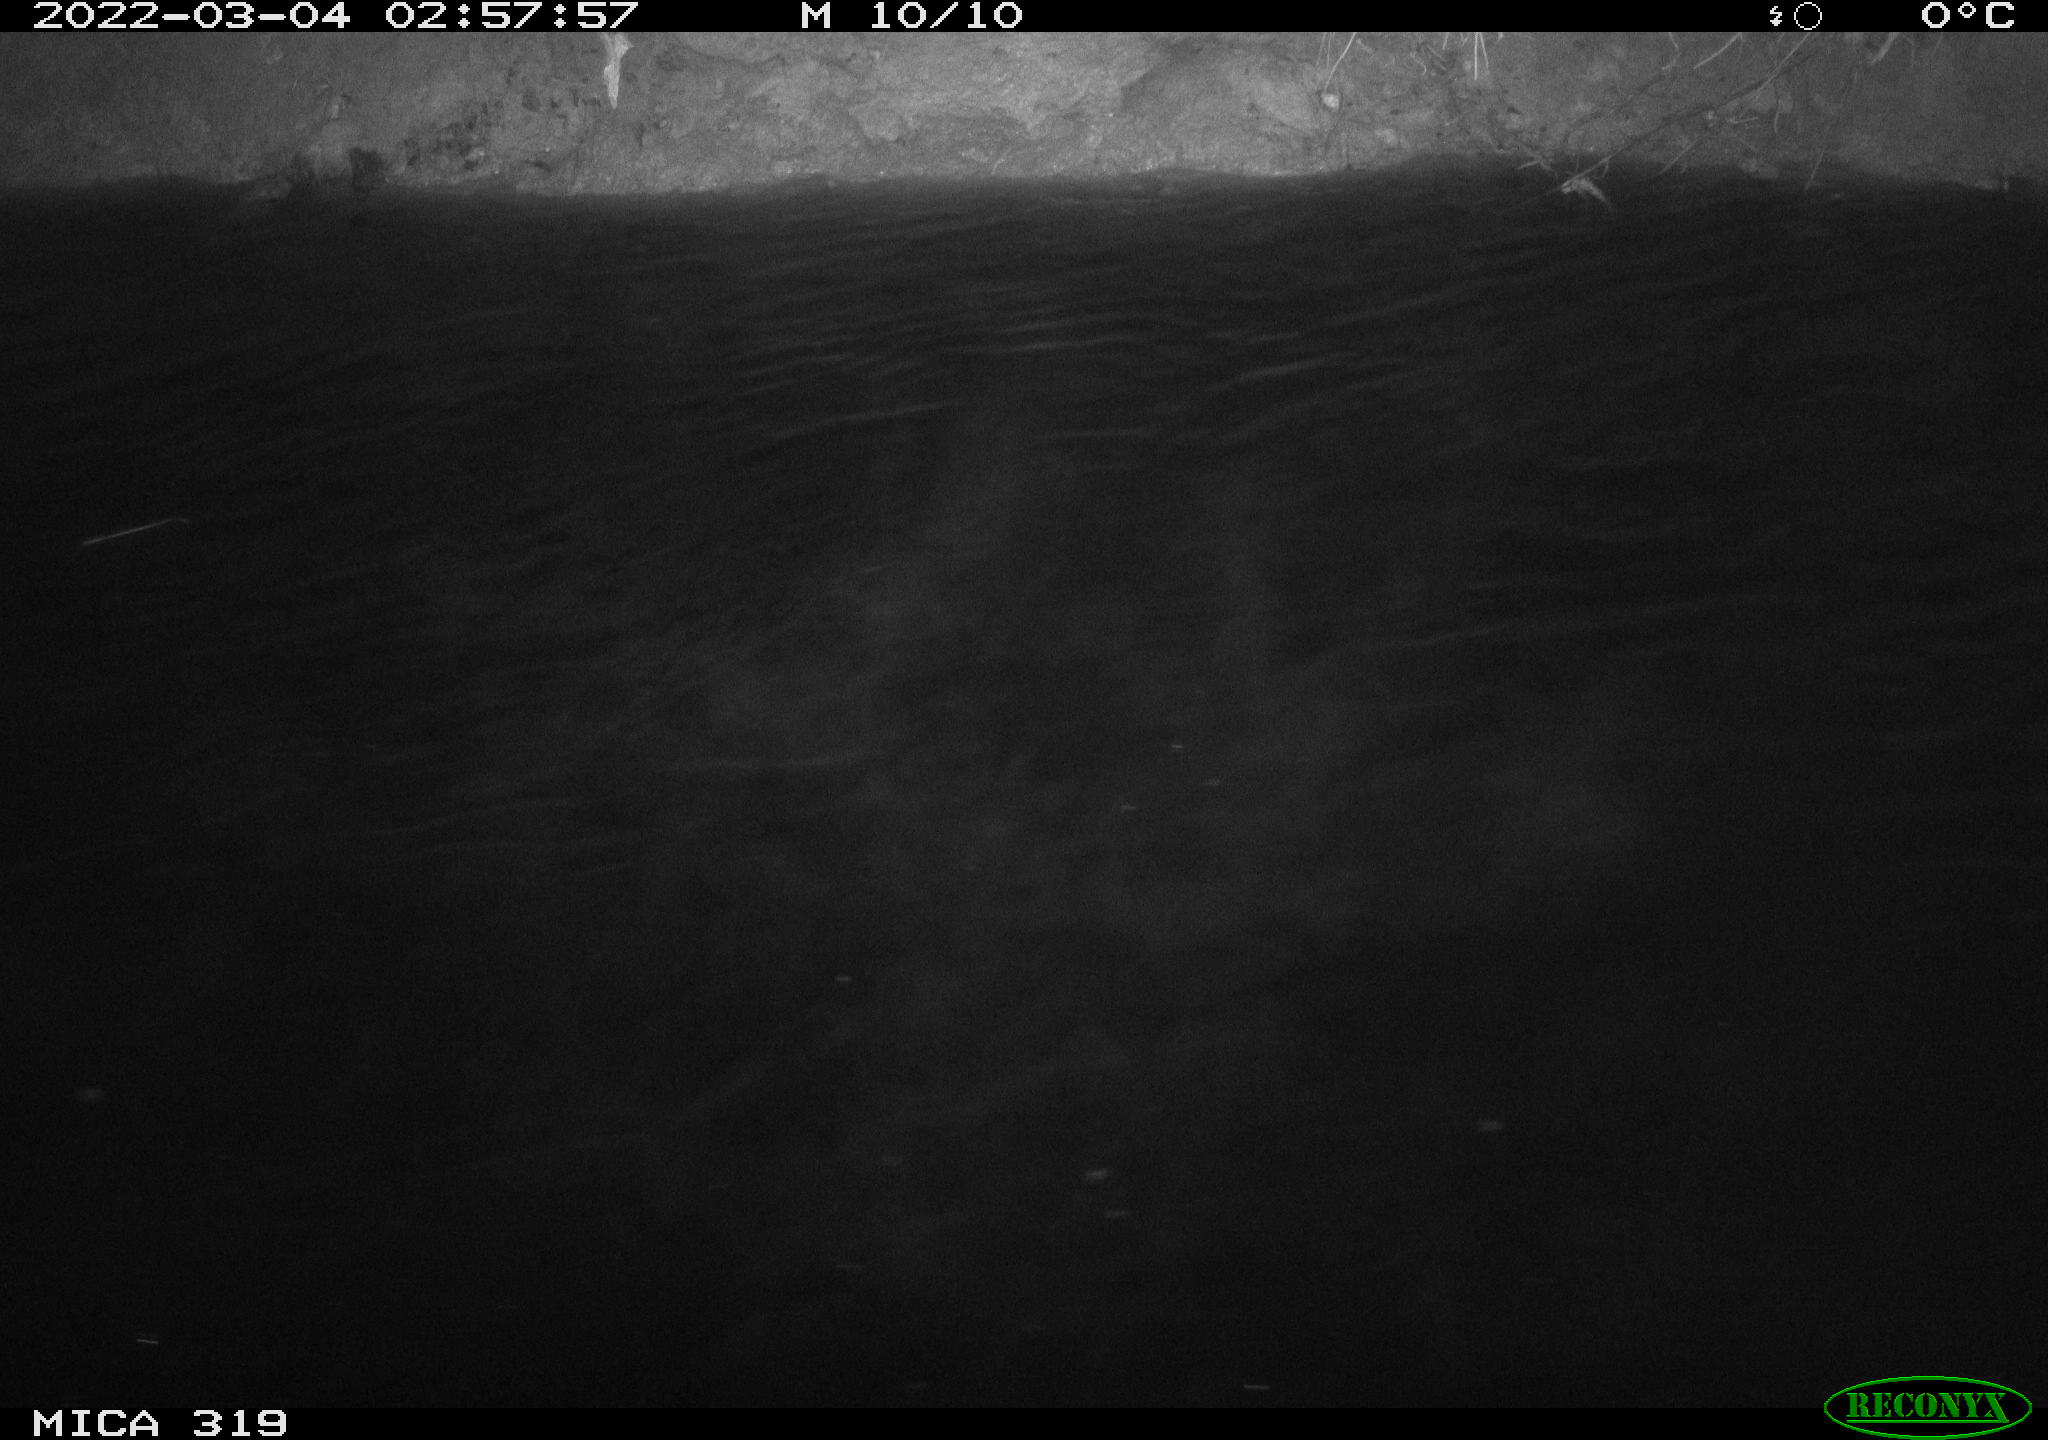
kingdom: Animalia
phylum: Chordata
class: Aves
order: Anseriformes
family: Anatidae
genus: Anas
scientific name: Anas platyrhynchos
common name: Mallard
